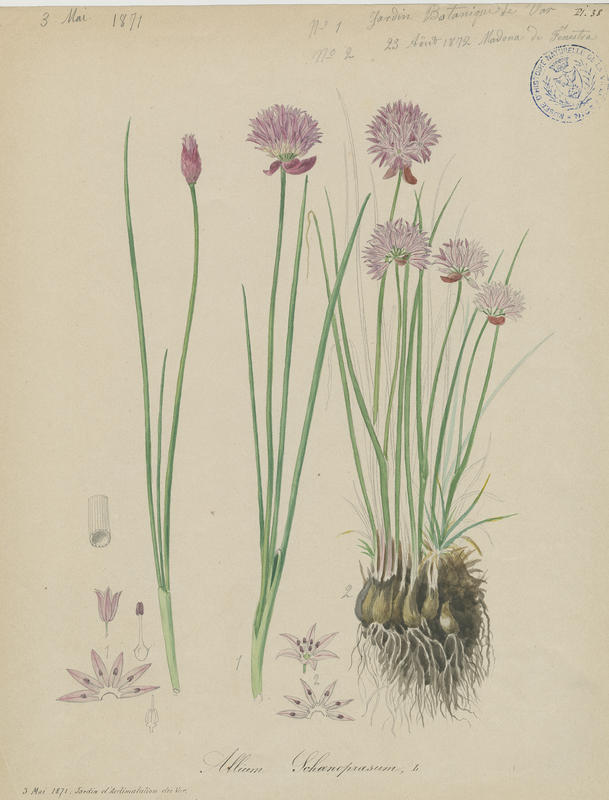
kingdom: Plantae
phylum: Tracheophyta
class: Liliopsida
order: Asparagales
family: Amaryllidaceae
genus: Allium
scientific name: Allium schoenoprasum
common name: Chives
